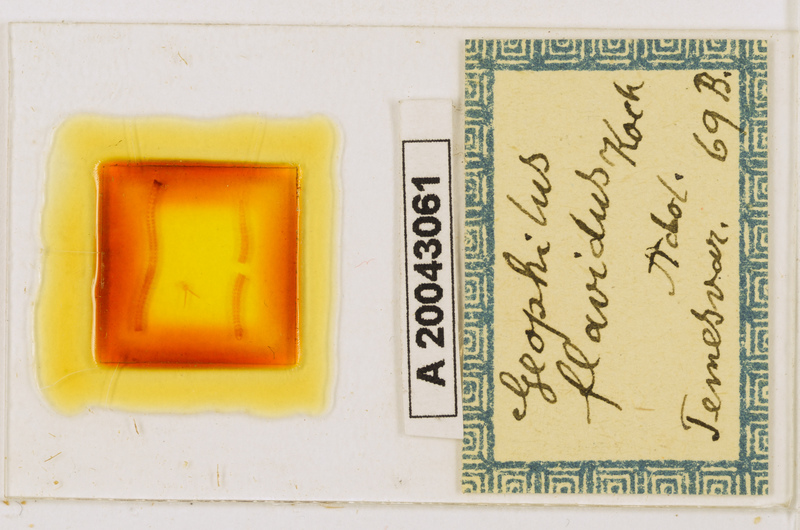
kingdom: Animalia
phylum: Arthropoda
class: Chilopoda
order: Geophilomorpha
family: Geophilidae
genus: Clinopodes
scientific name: Clinopodes flavidus
